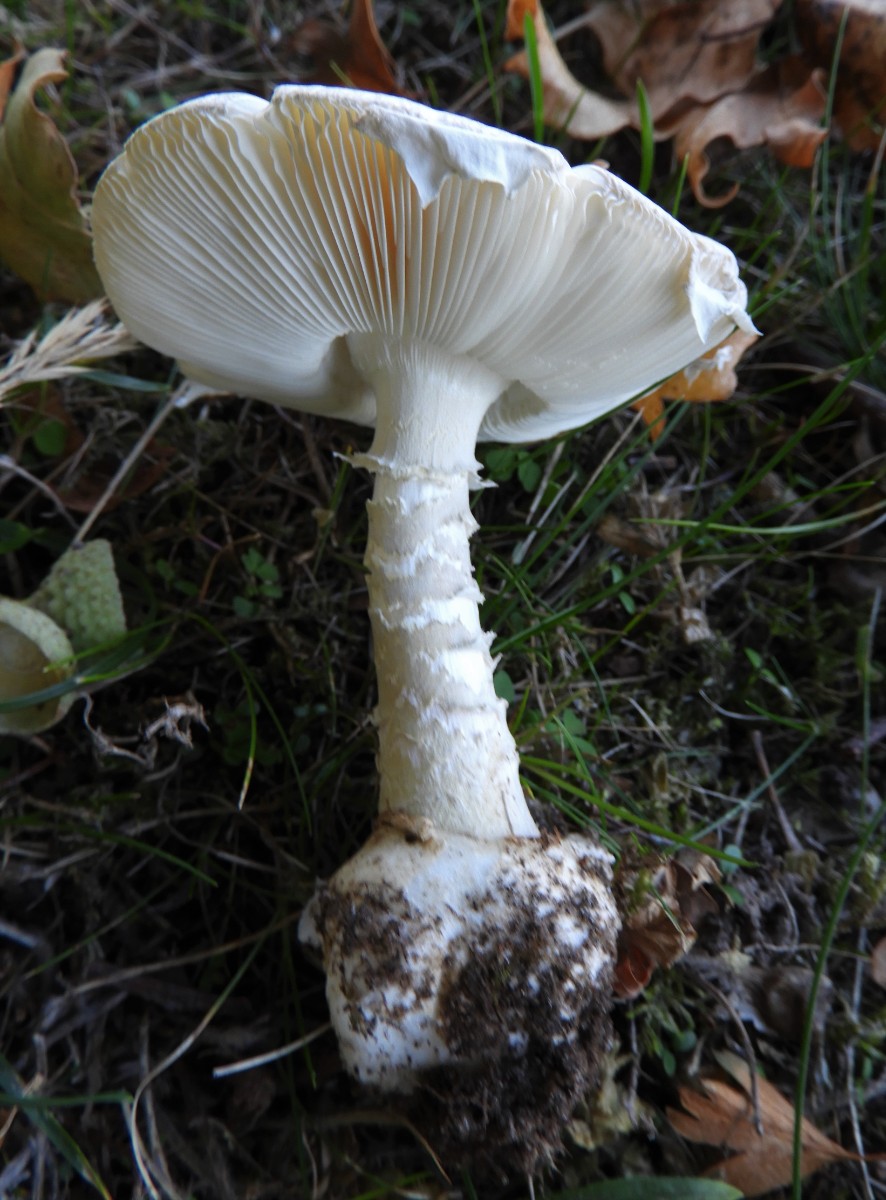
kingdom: Fungi
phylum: Basidiomycota
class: Agaricomycetes
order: Agaricales
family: Amanitaceae
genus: Amanita
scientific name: Amanita phalloides
